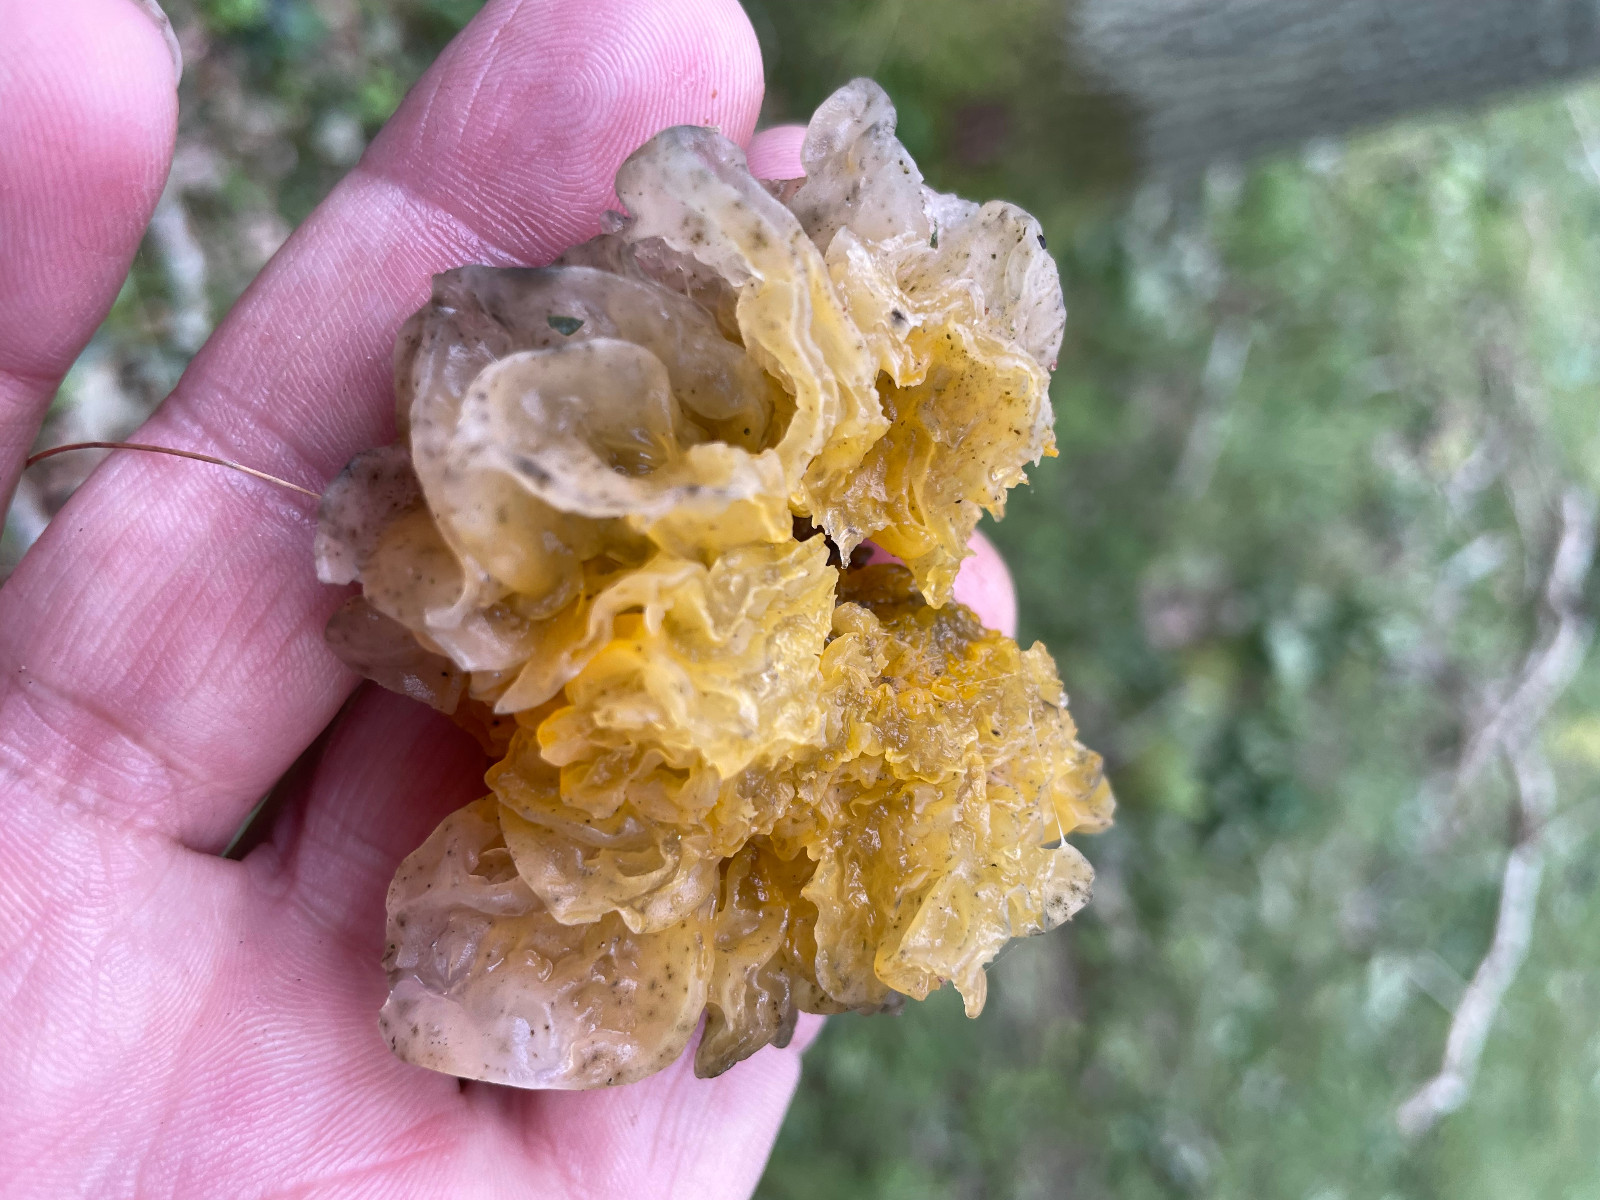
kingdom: Fungi
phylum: Basidiomycota
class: Tremellomycetes
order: Tremellales
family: Tremellaceae
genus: Tremella
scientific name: Tremella mesenterica
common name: gul bævresvamp
